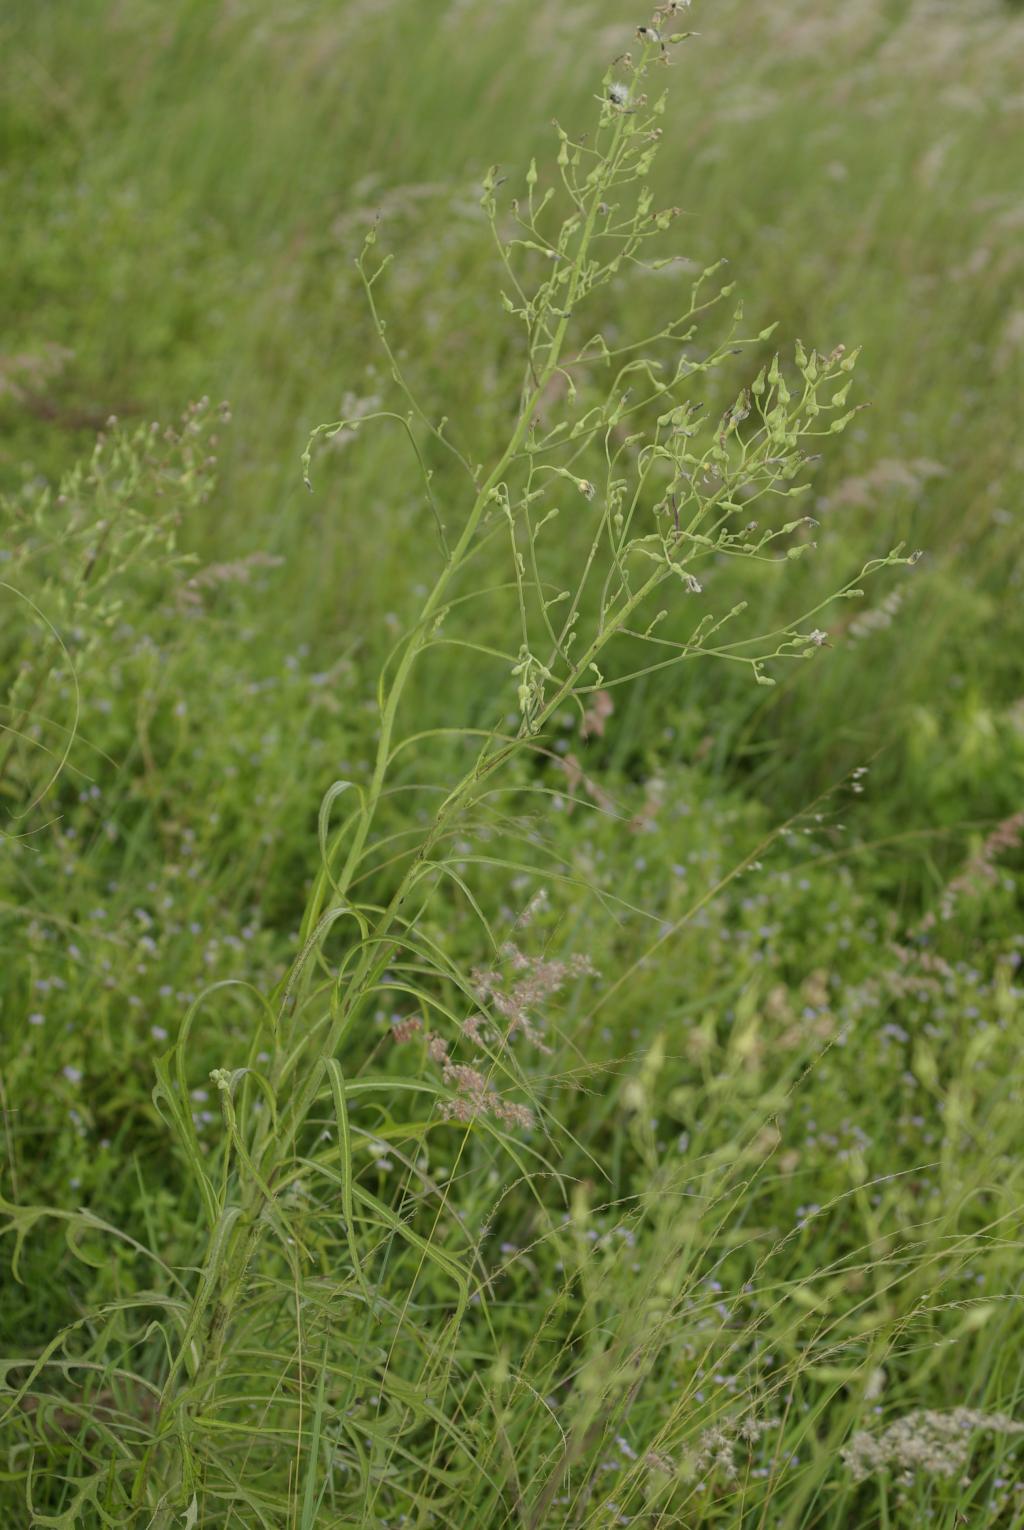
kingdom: Plantae
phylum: Tracheophyta
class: Magnoliopsida
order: Asterales
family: Asteraceae
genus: Lactuca
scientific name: Lactuca indica
